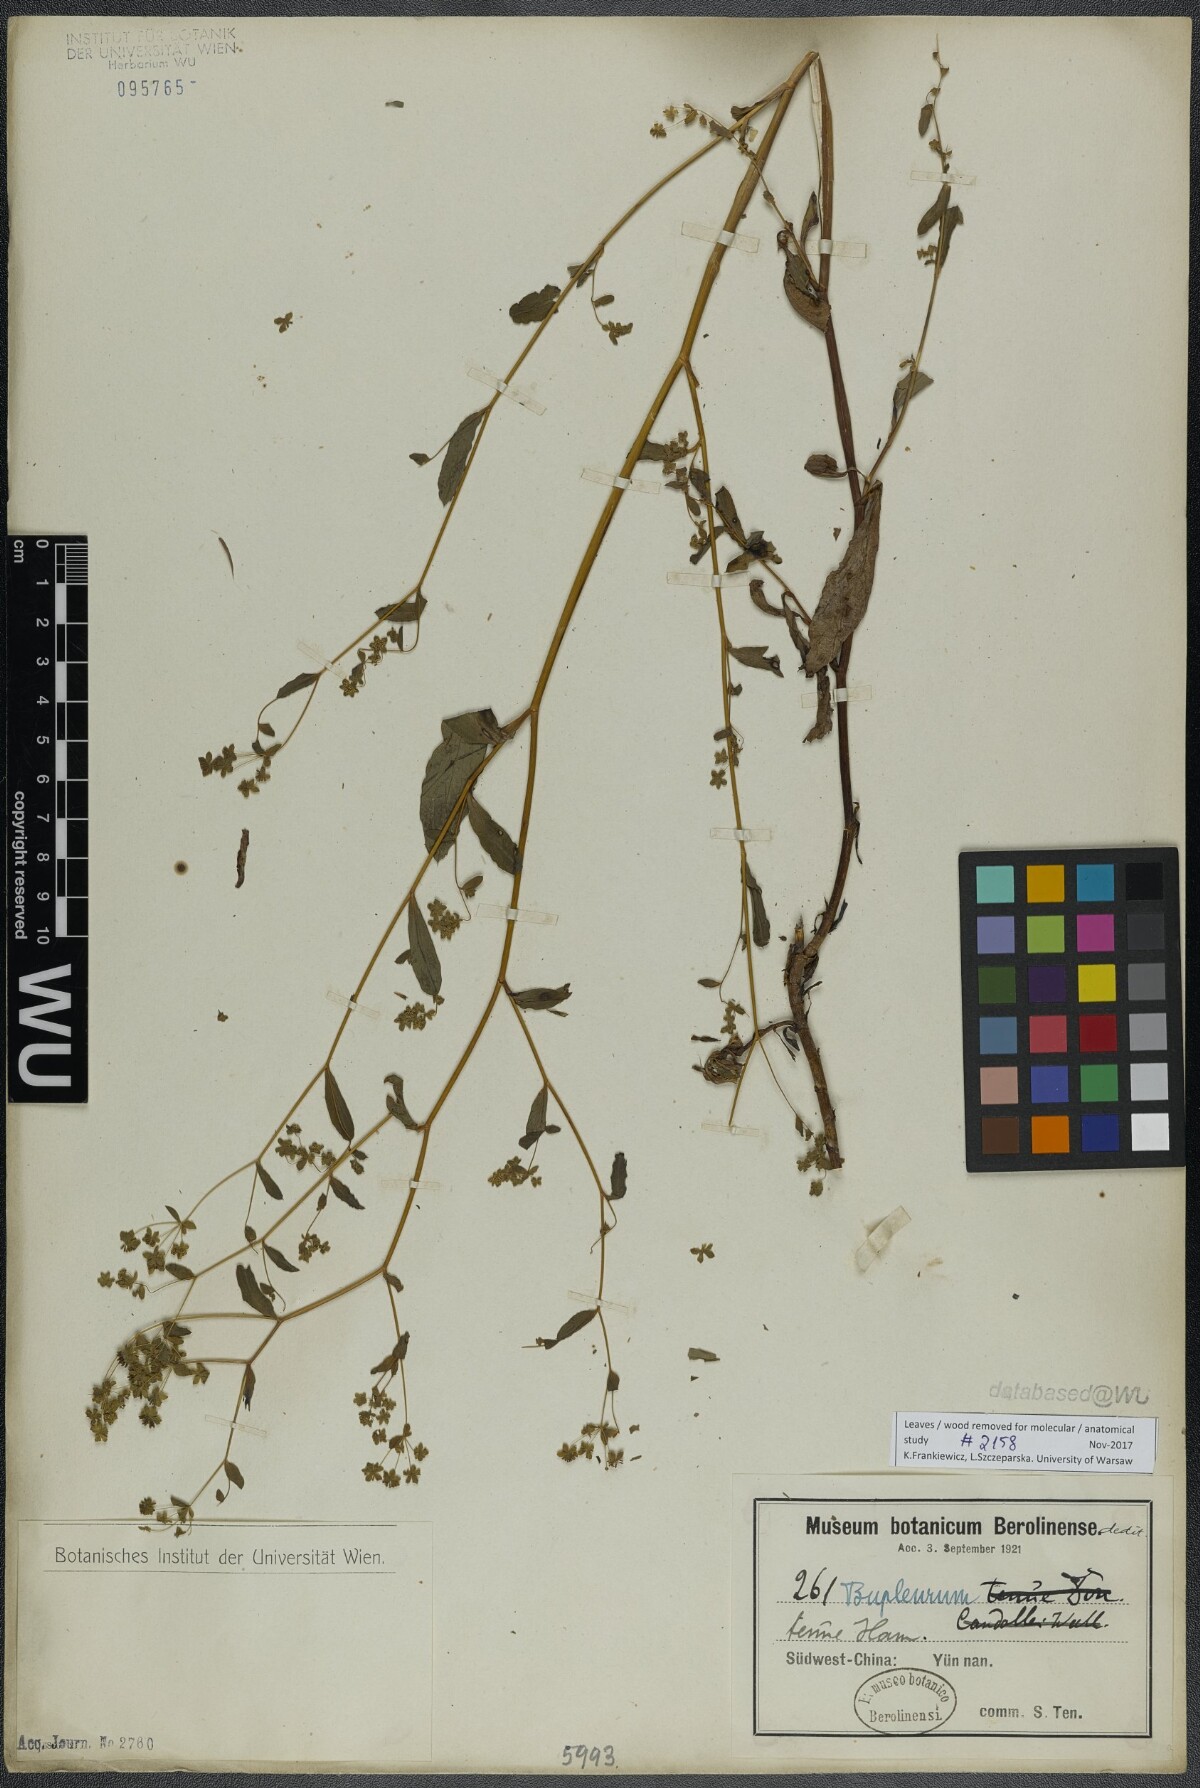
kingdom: Plantae
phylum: Tracheophyta
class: Magnoliopsida
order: Apiales
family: Apiaceae
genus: Bupleurum
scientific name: Bupleurum hamiltonii
